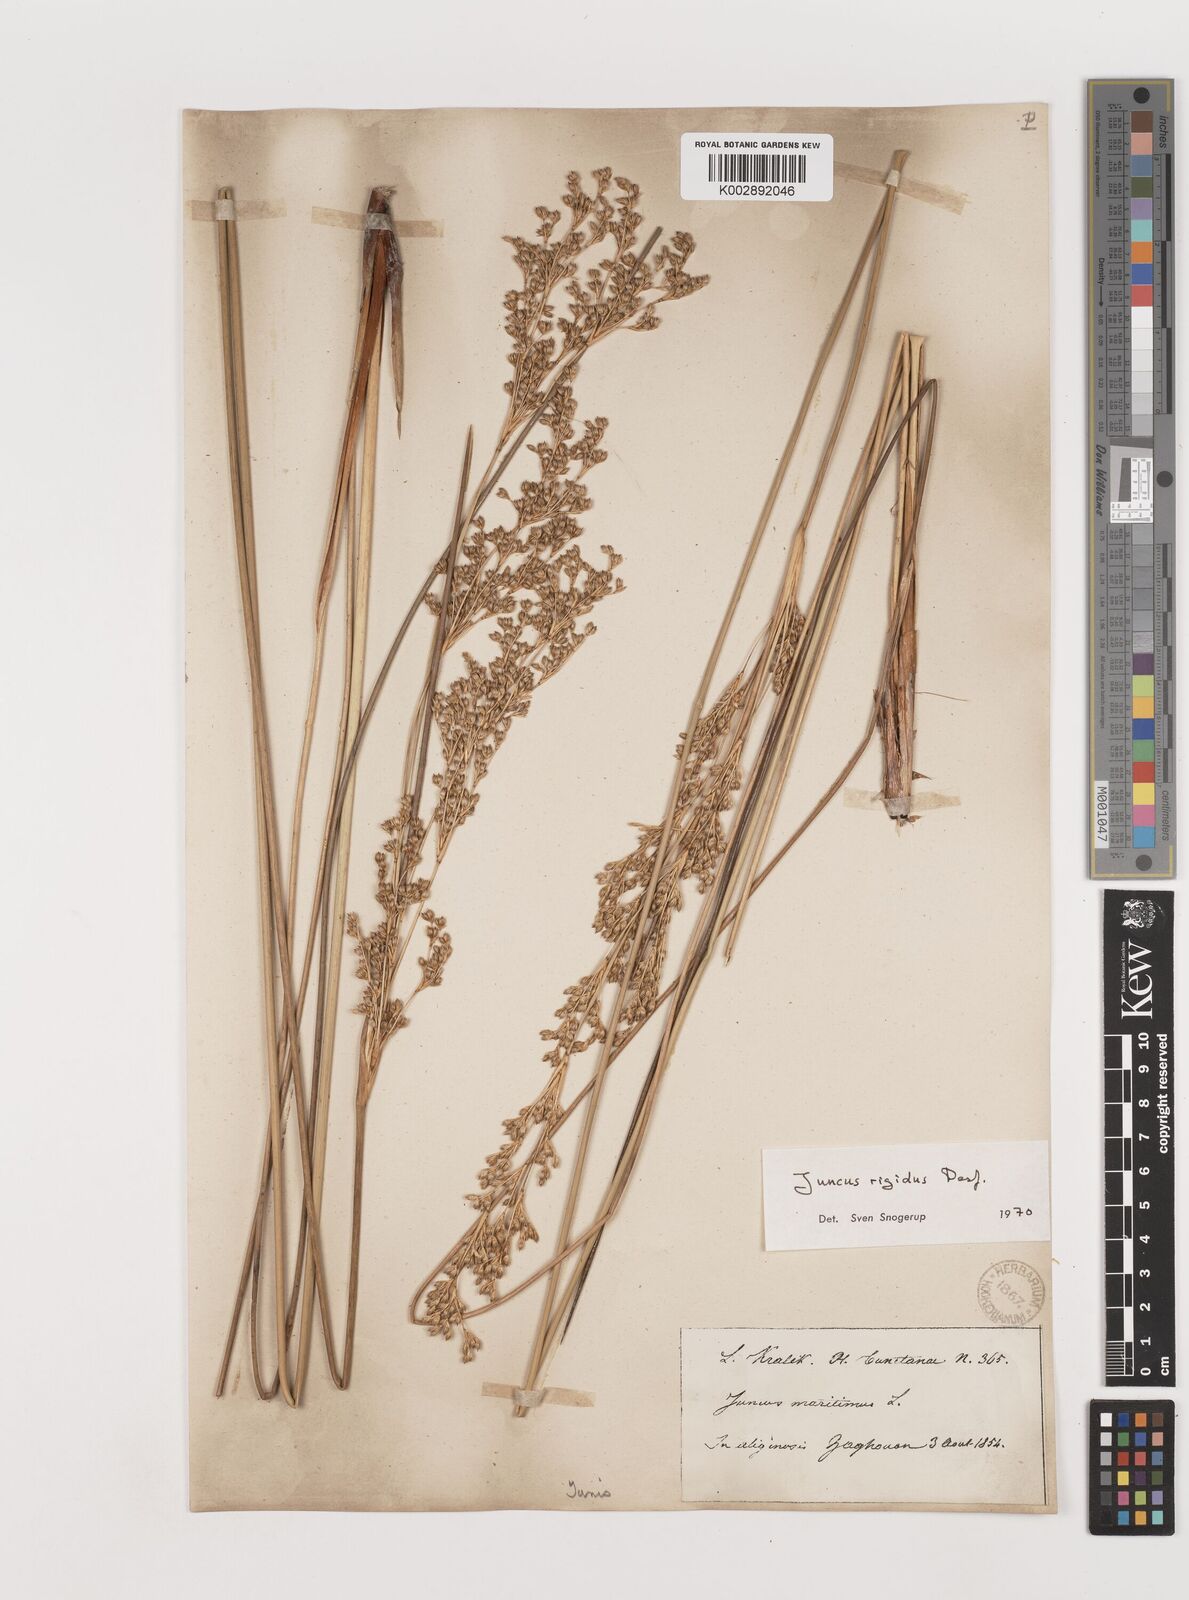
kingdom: Plantae
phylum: Tracheophyta
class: Liliopsida
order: Poales
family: Juncaceae
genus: Juncus
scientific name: Juncus rigidus
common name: Hard sea rush
